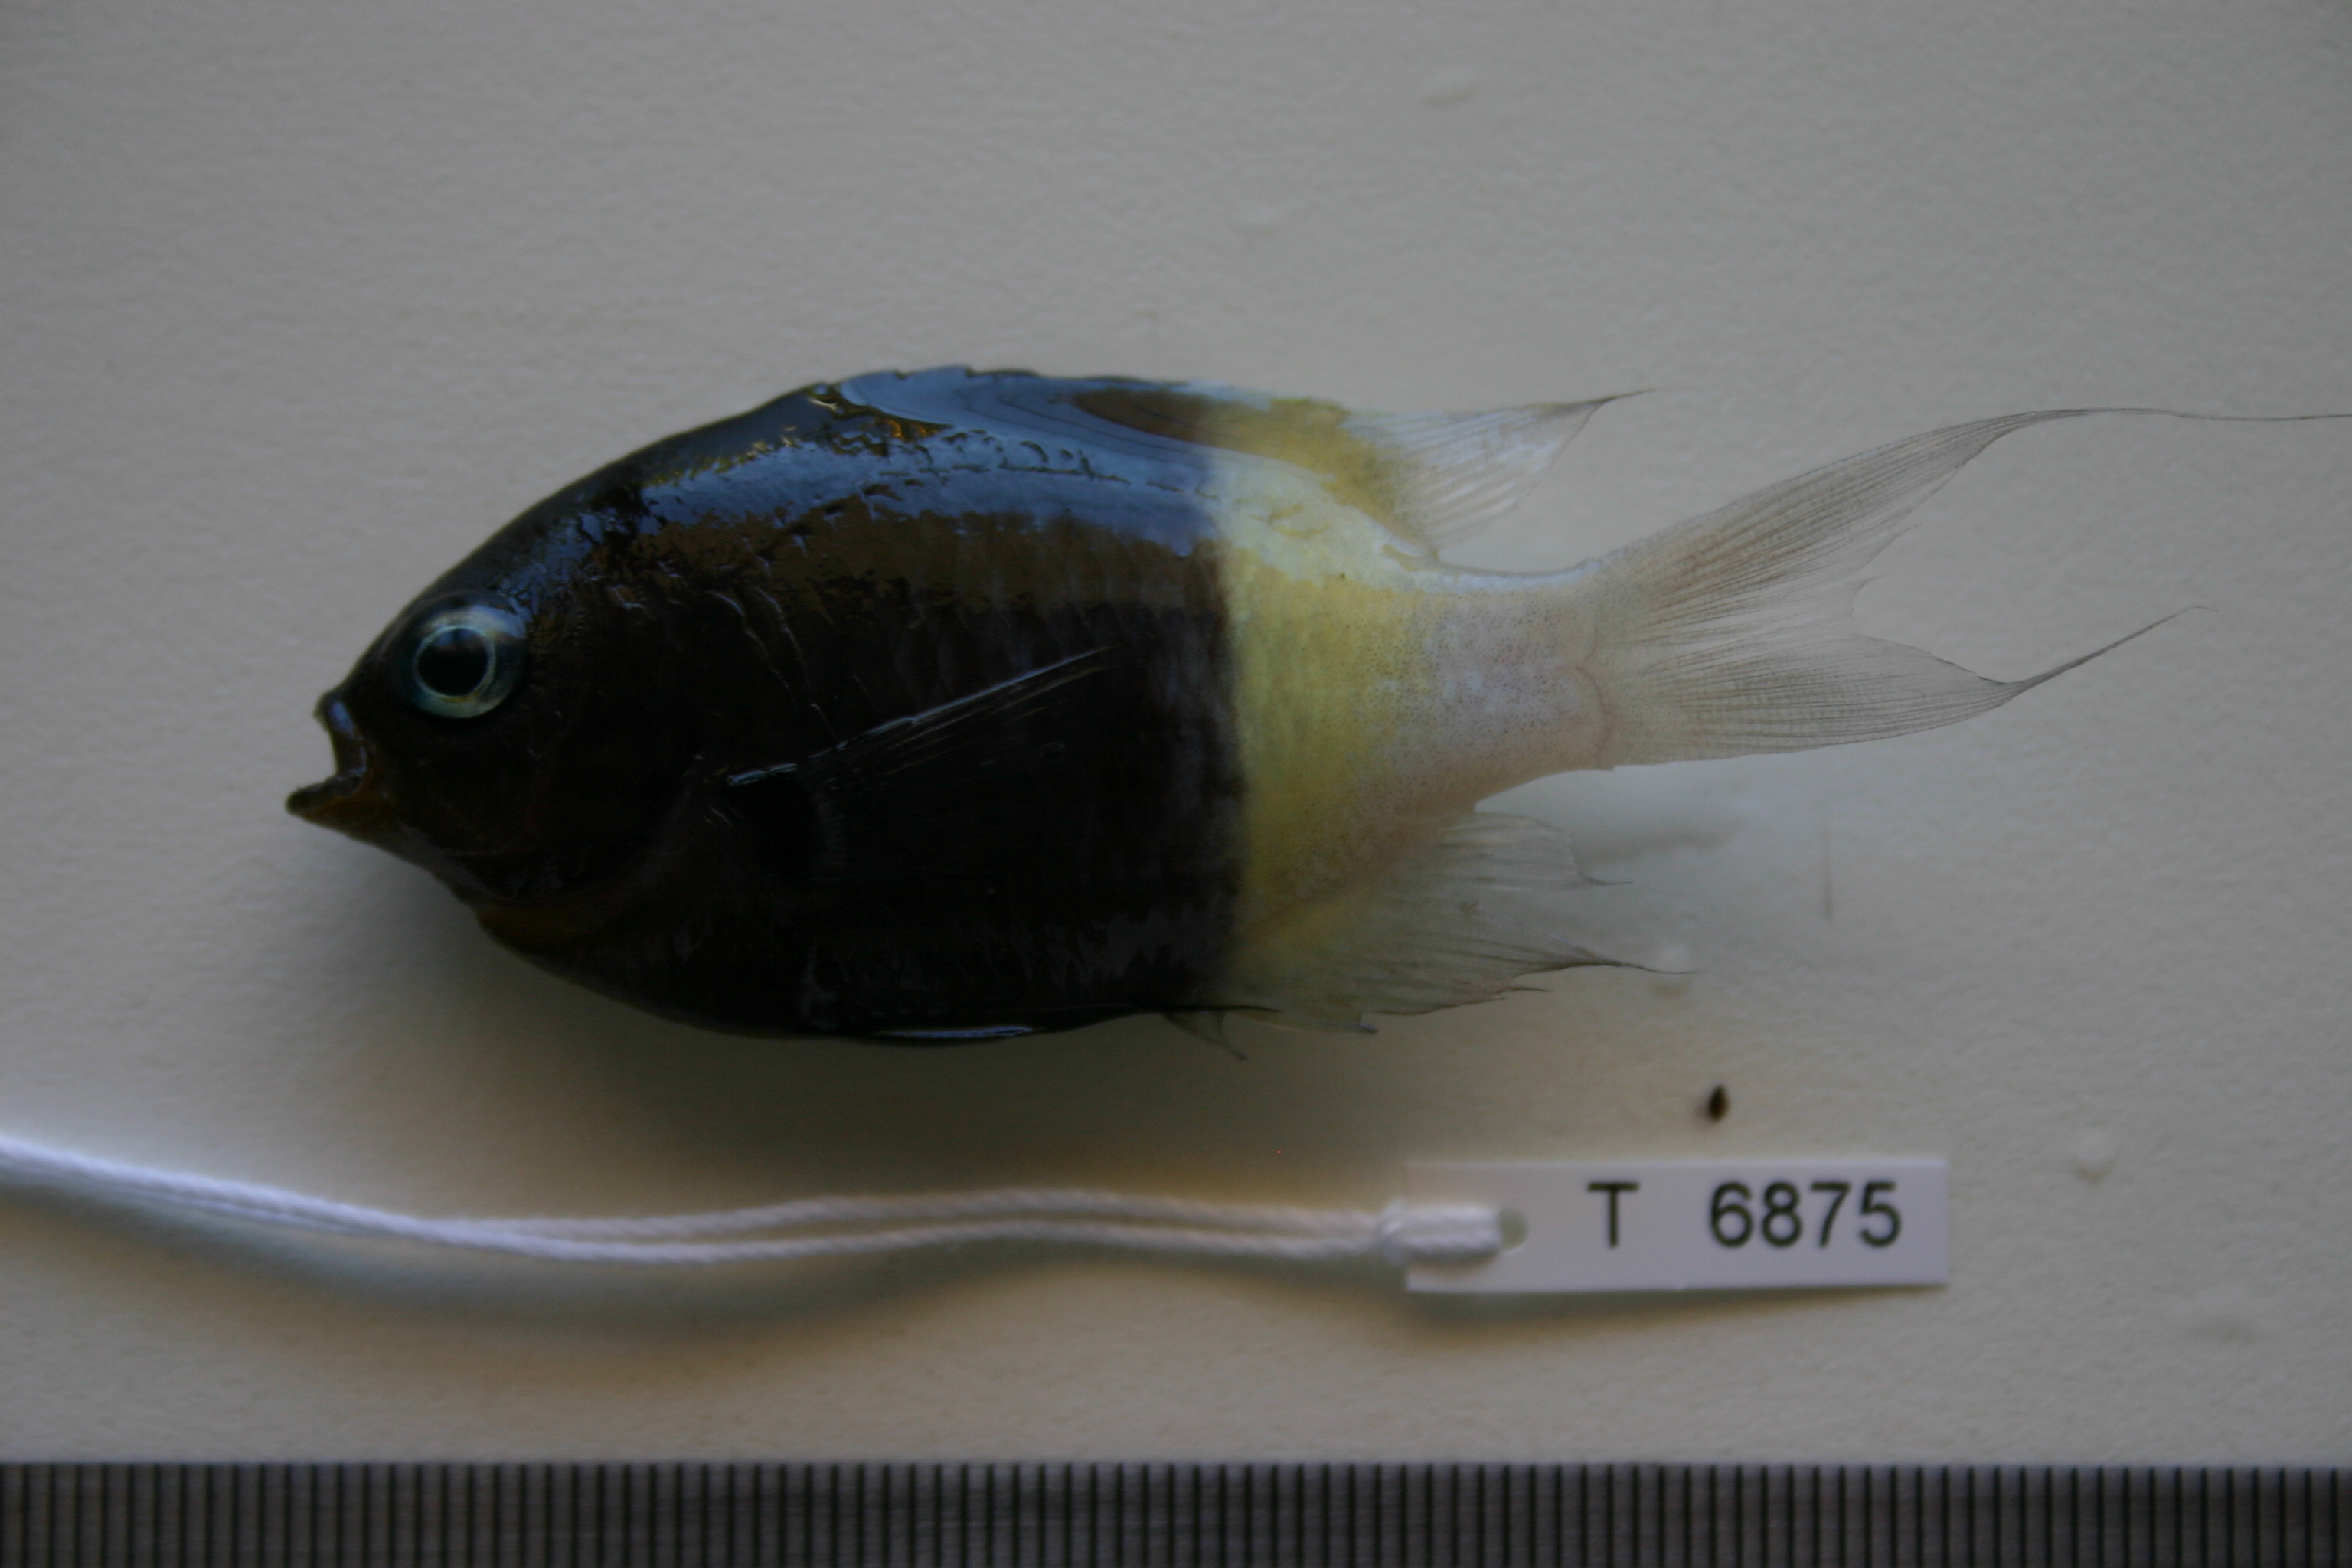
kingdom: Animalia
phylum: Chordata
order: Perciformes
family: Pomacentridae
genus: Chromis
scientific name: Chromis dimidiata
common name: Half-and-half chromis
